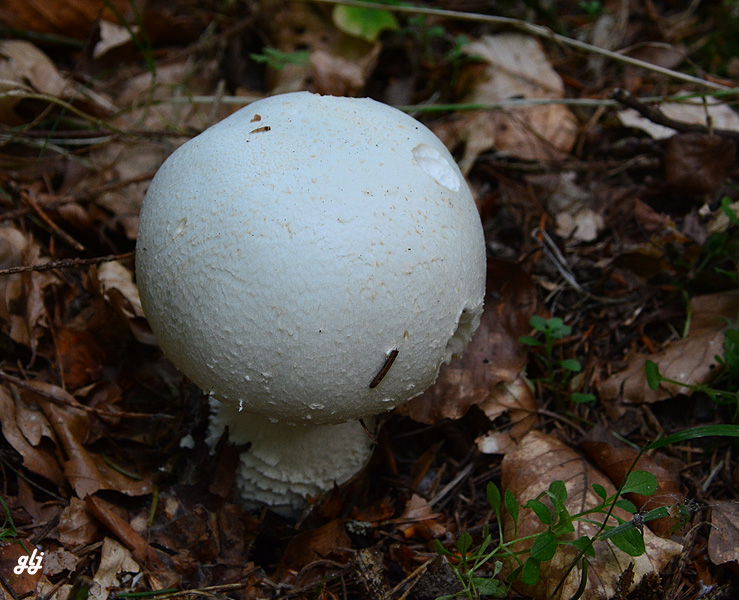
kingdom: Fungi
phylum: Basidiomycota
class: Agaricomycetes
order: Agaricales
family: Agaricaceae
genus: Agaricus
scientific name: Agaricus
